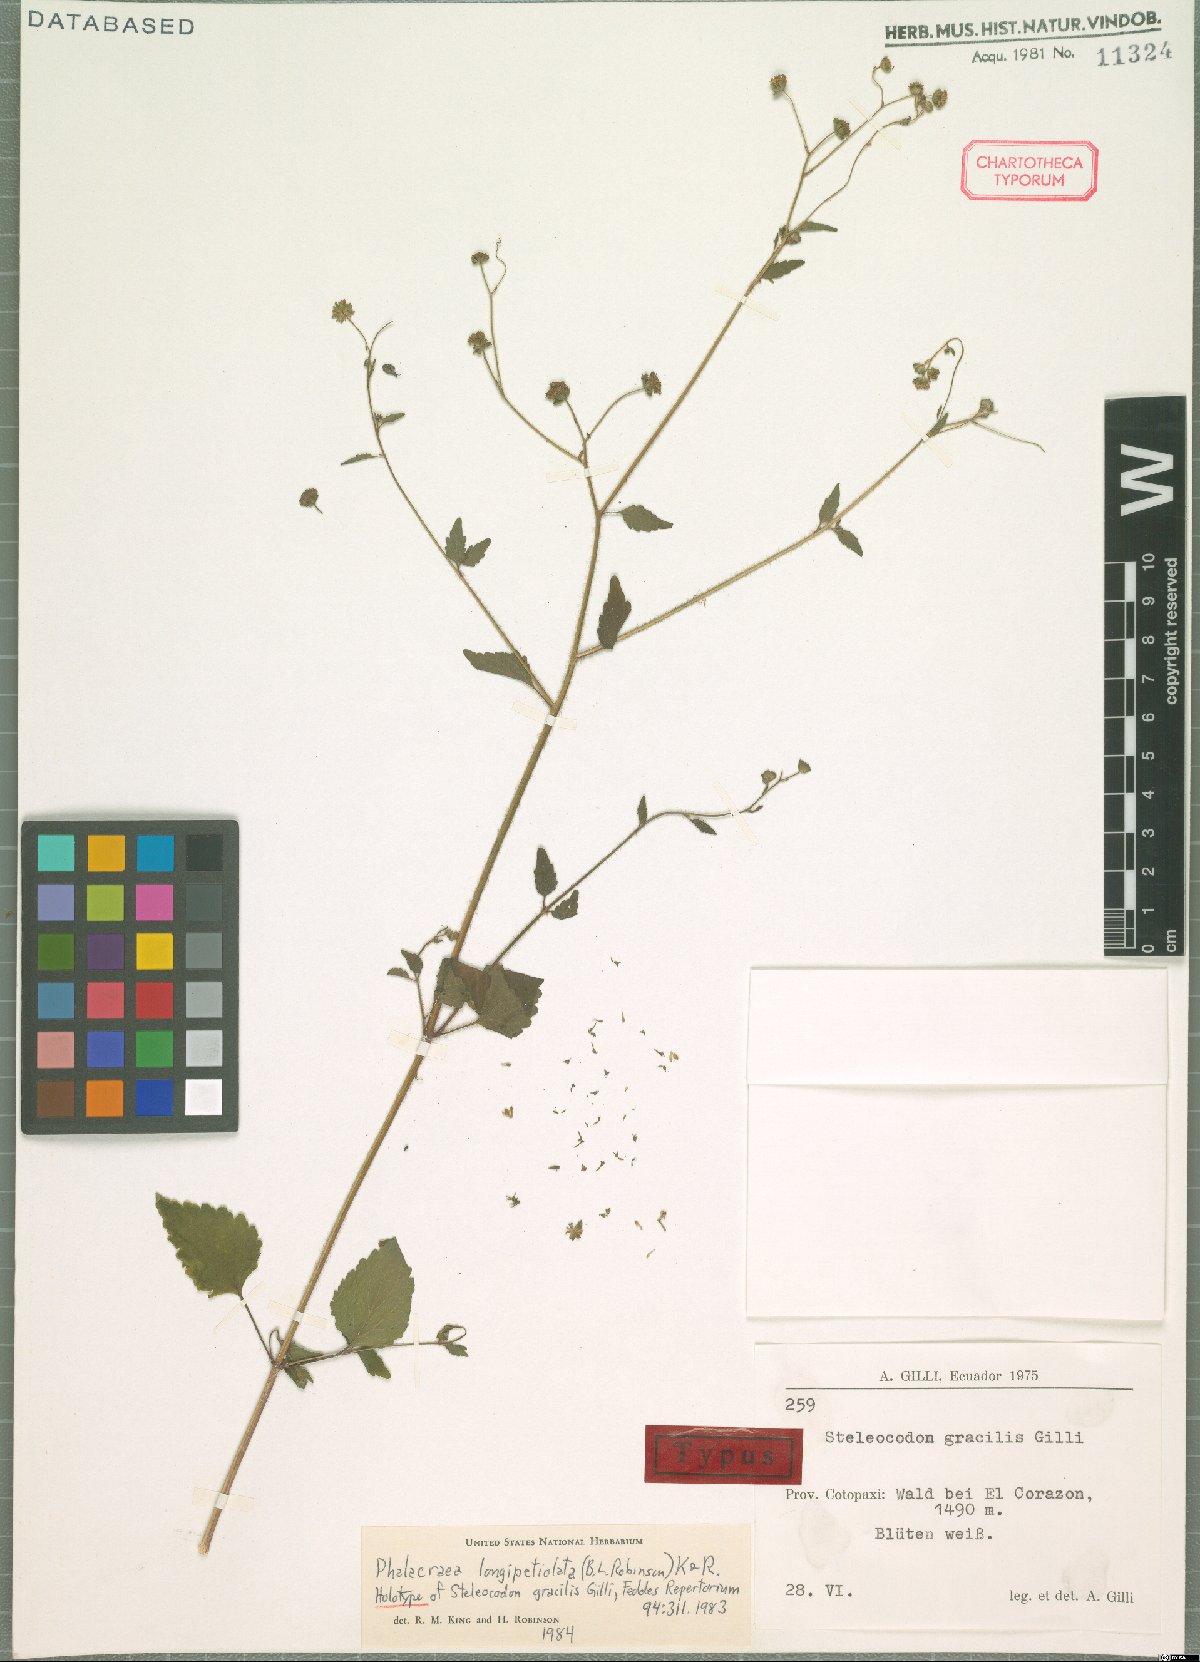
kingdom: Plantae
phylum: Tracheophyta
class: Magnoliopsida
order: Asterales
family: Asteraceae
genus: Phalacraea
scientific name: Phalacraea longipetiolata
